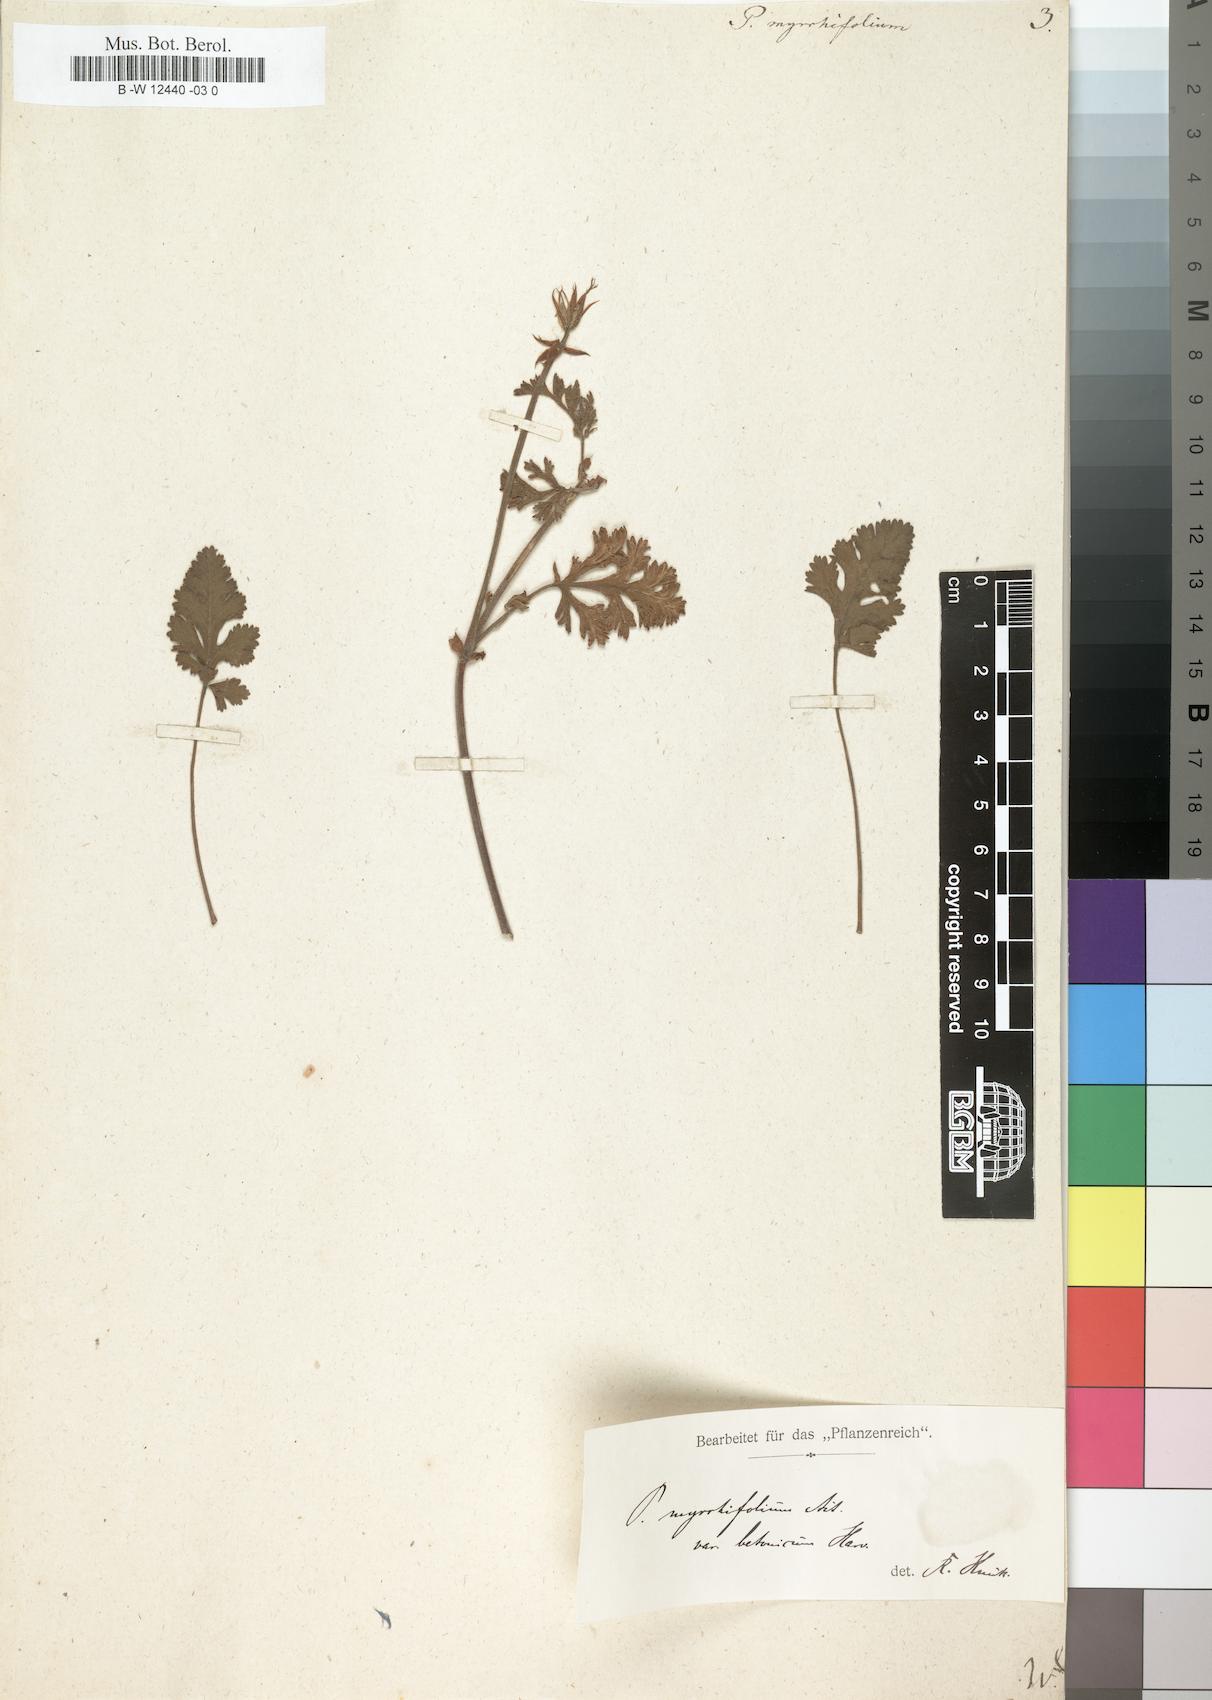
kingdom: Plantae
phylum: Tracheophyta
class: Magnoliopsida
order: Geraniales
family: Geraniaceae
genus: Pelargonium
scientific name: Pelargonium myrrhifolium
